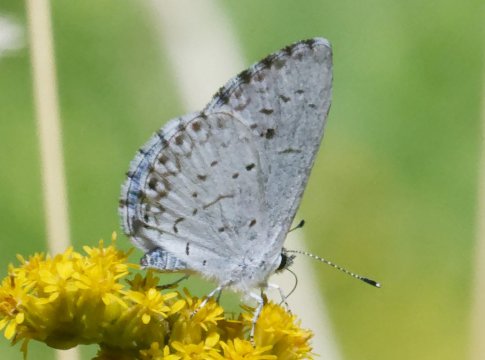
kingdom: Animalia
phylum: Arthropoda
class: Insecta
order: Lepidoptera
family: Lycaenidae
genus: Cyaniris
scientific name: Cyaniris neglecta
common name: Summer Azure
